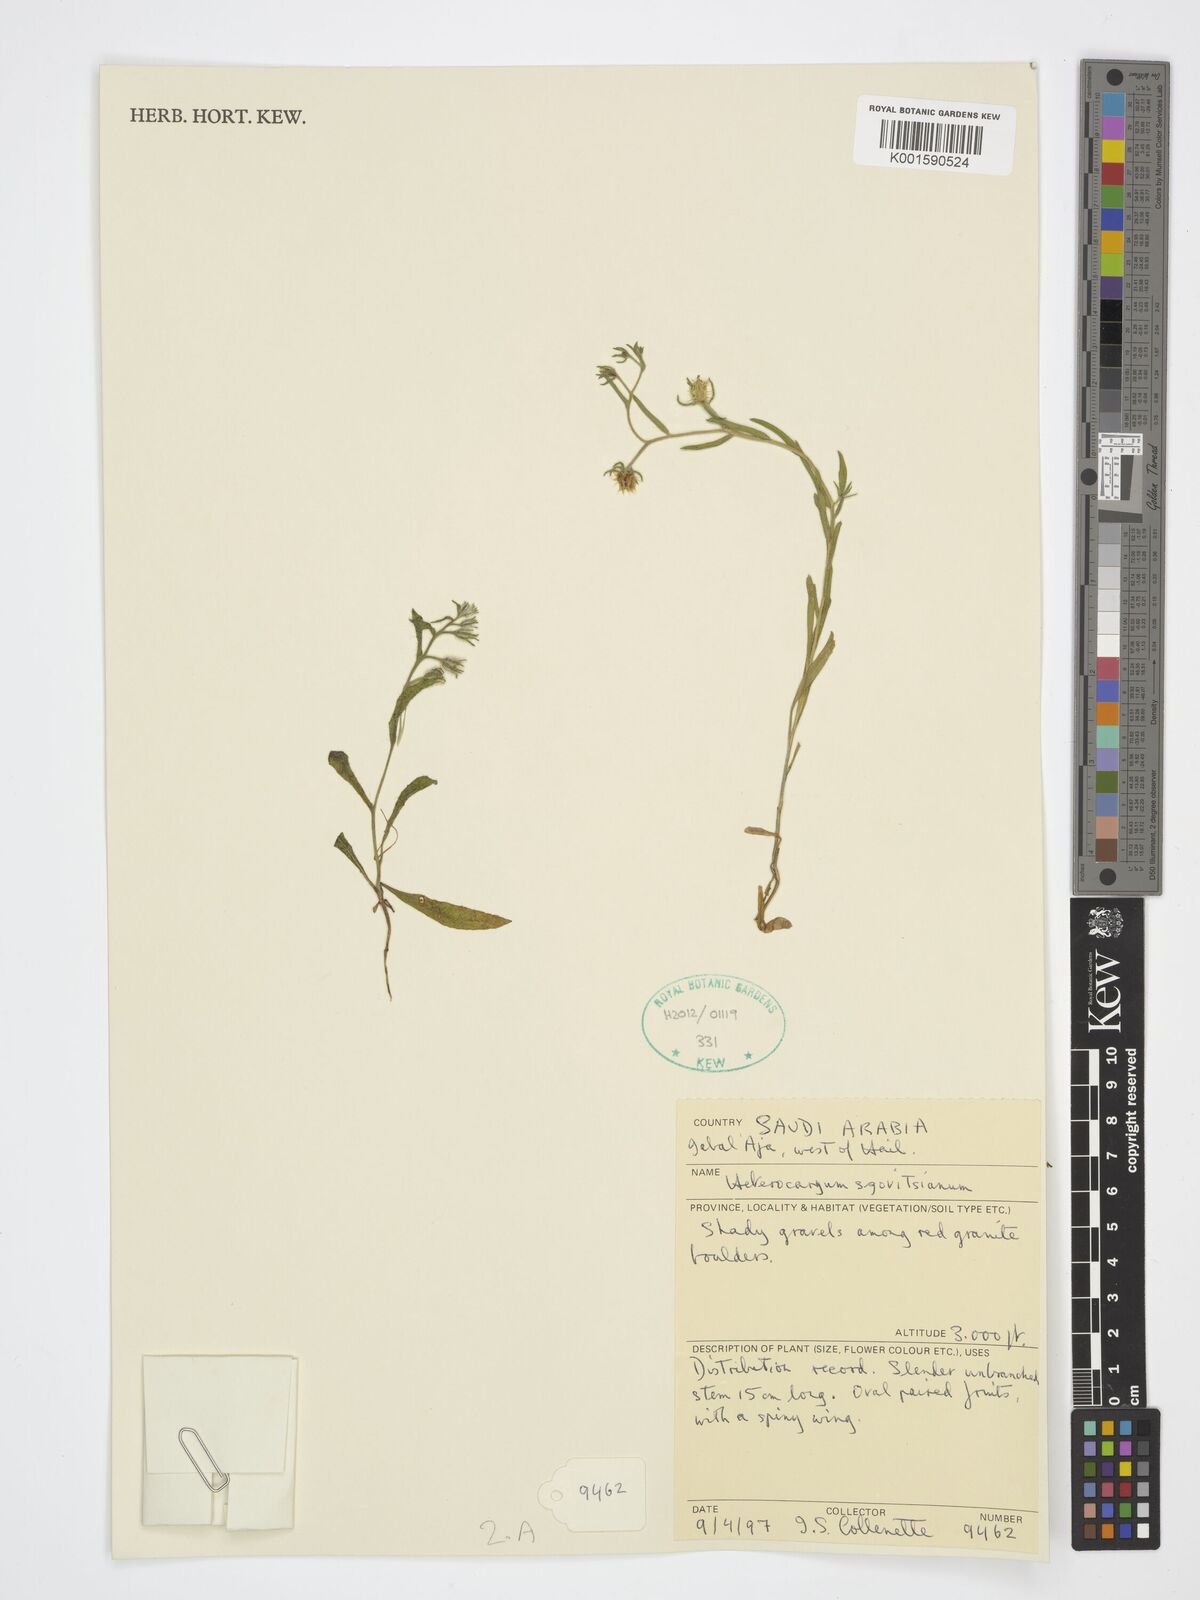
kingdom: Plantae
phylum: Tracheophyta
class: Magnoliopsida
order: Boraginales
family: Boraginaceae
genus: Pseudoheterocaryum
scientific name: Pseudoheterocaryum szovitsianum
